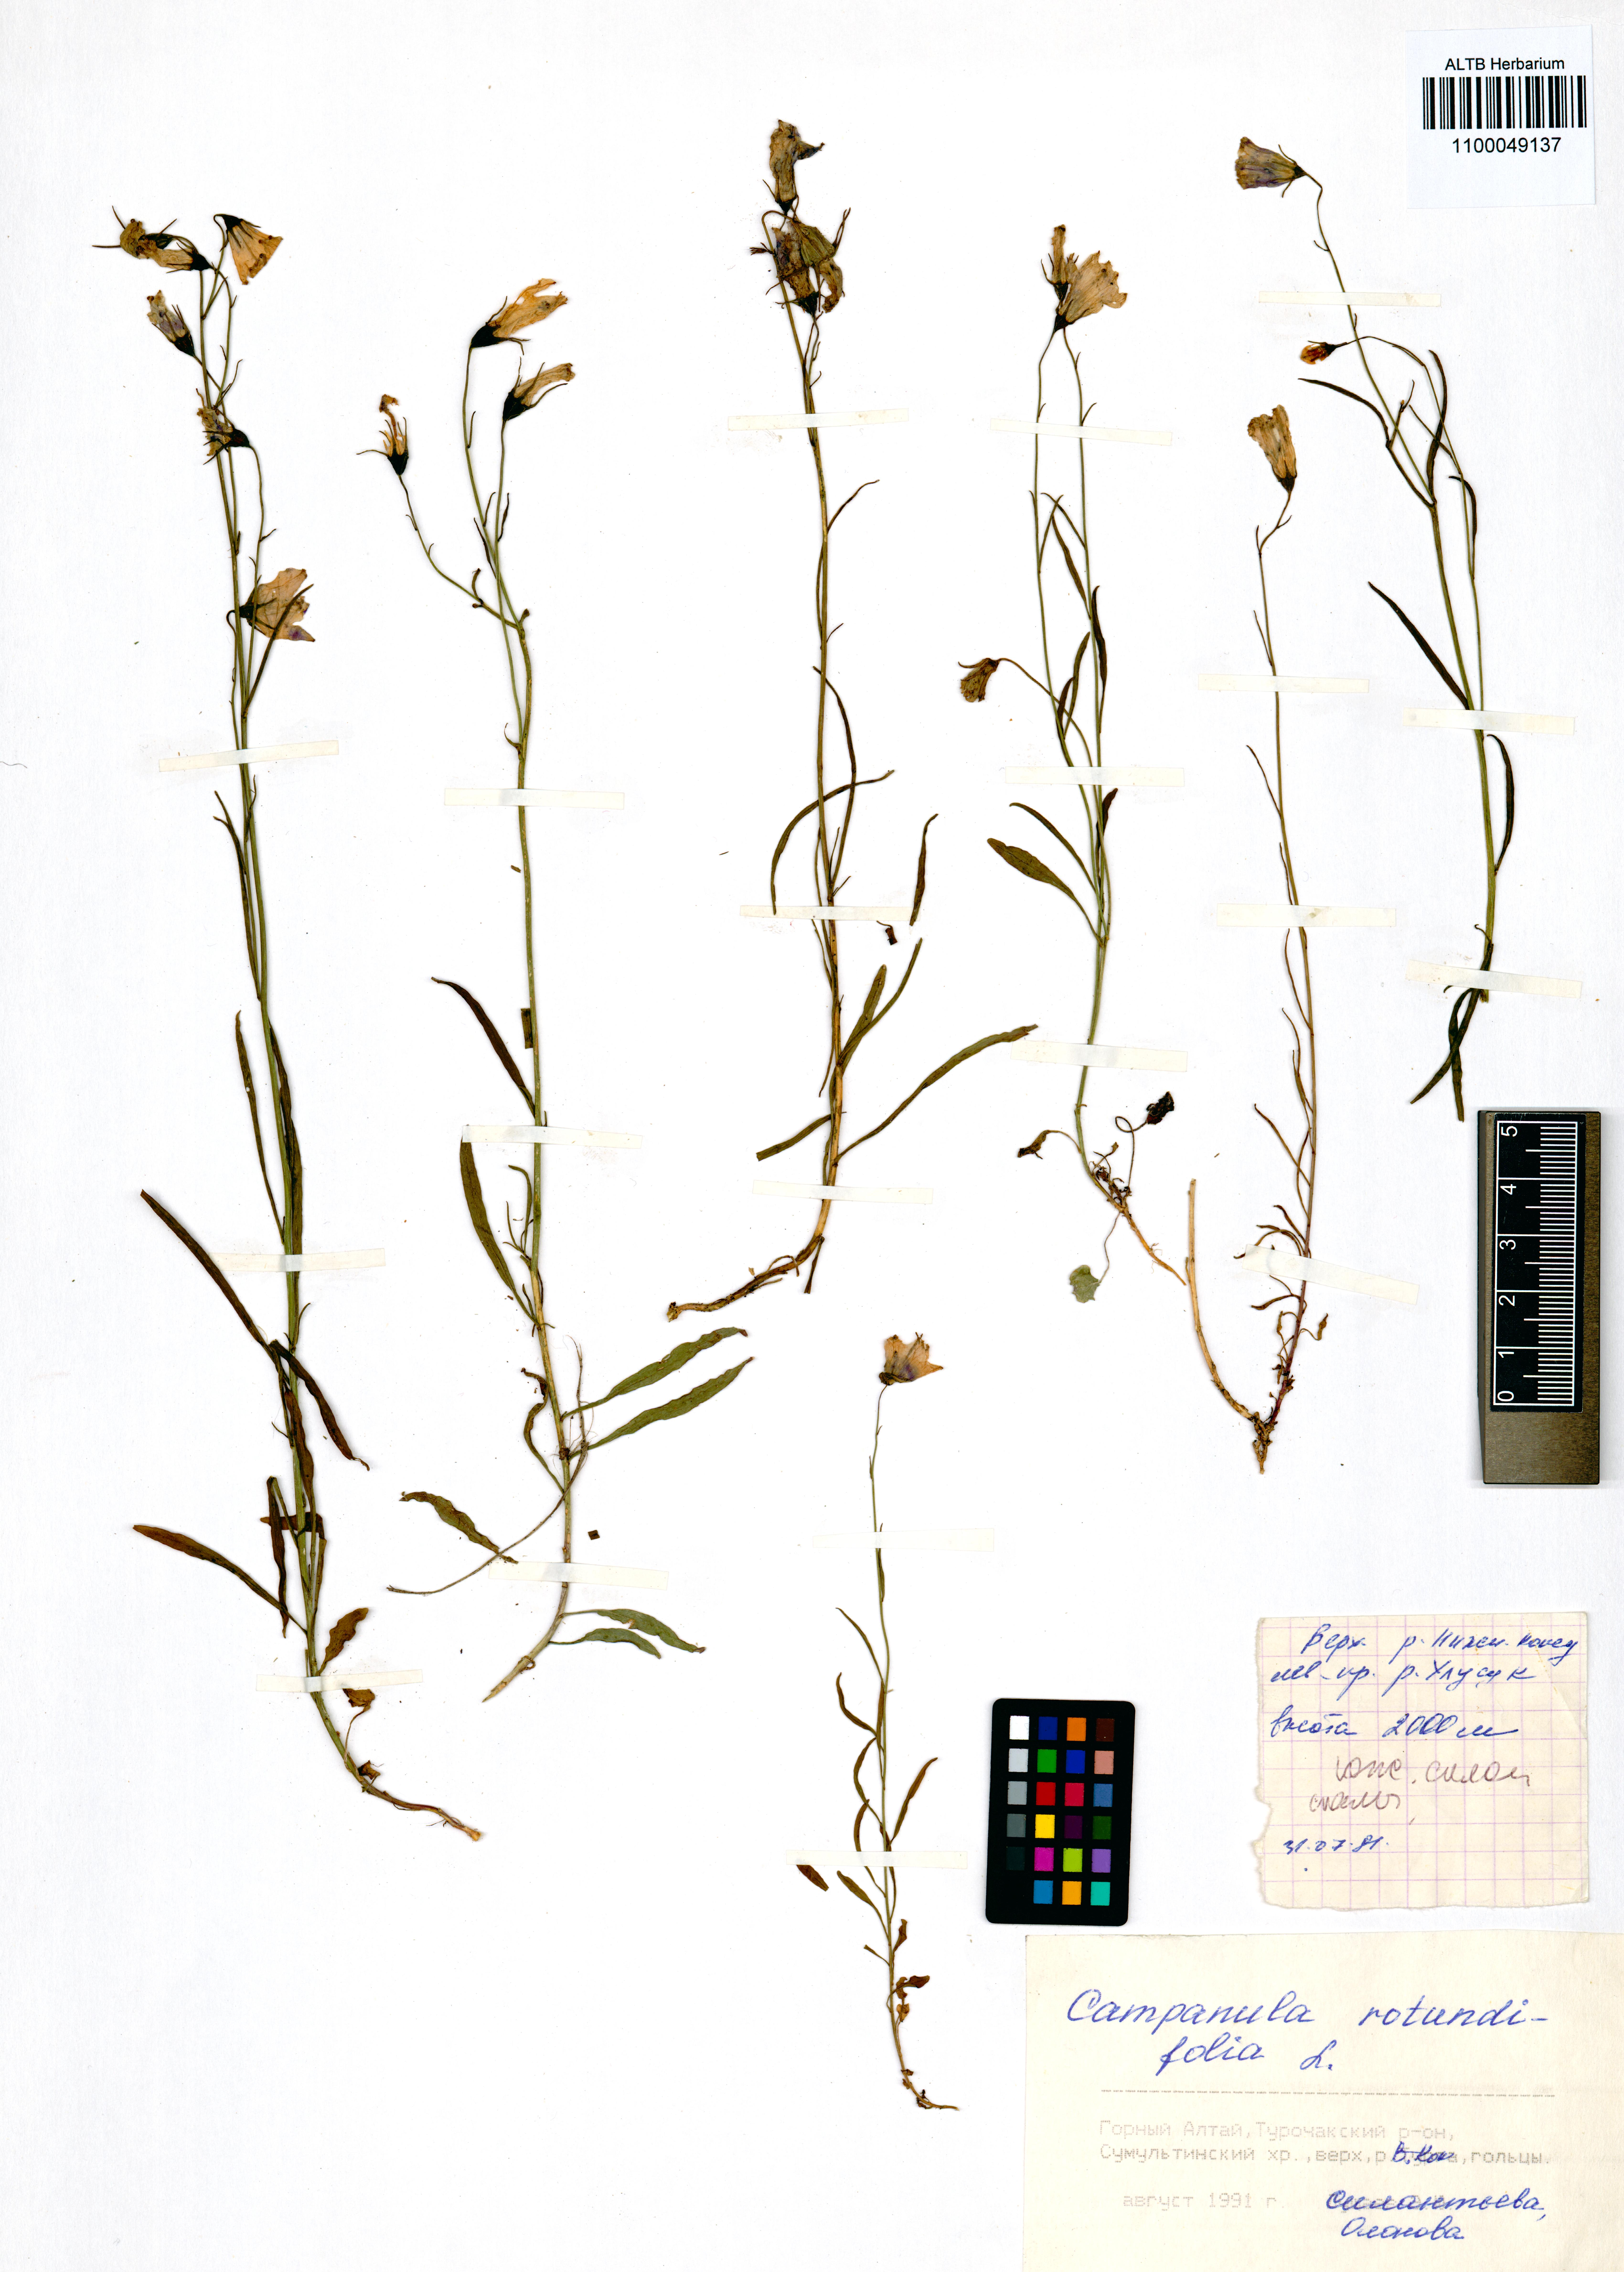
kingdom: Plantae
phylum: Tracheophyta
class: Magnoliopsida
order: Asterales
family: Campanulaceae
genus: Campanula
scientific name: Campanula rotundifolia
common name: Harebell
